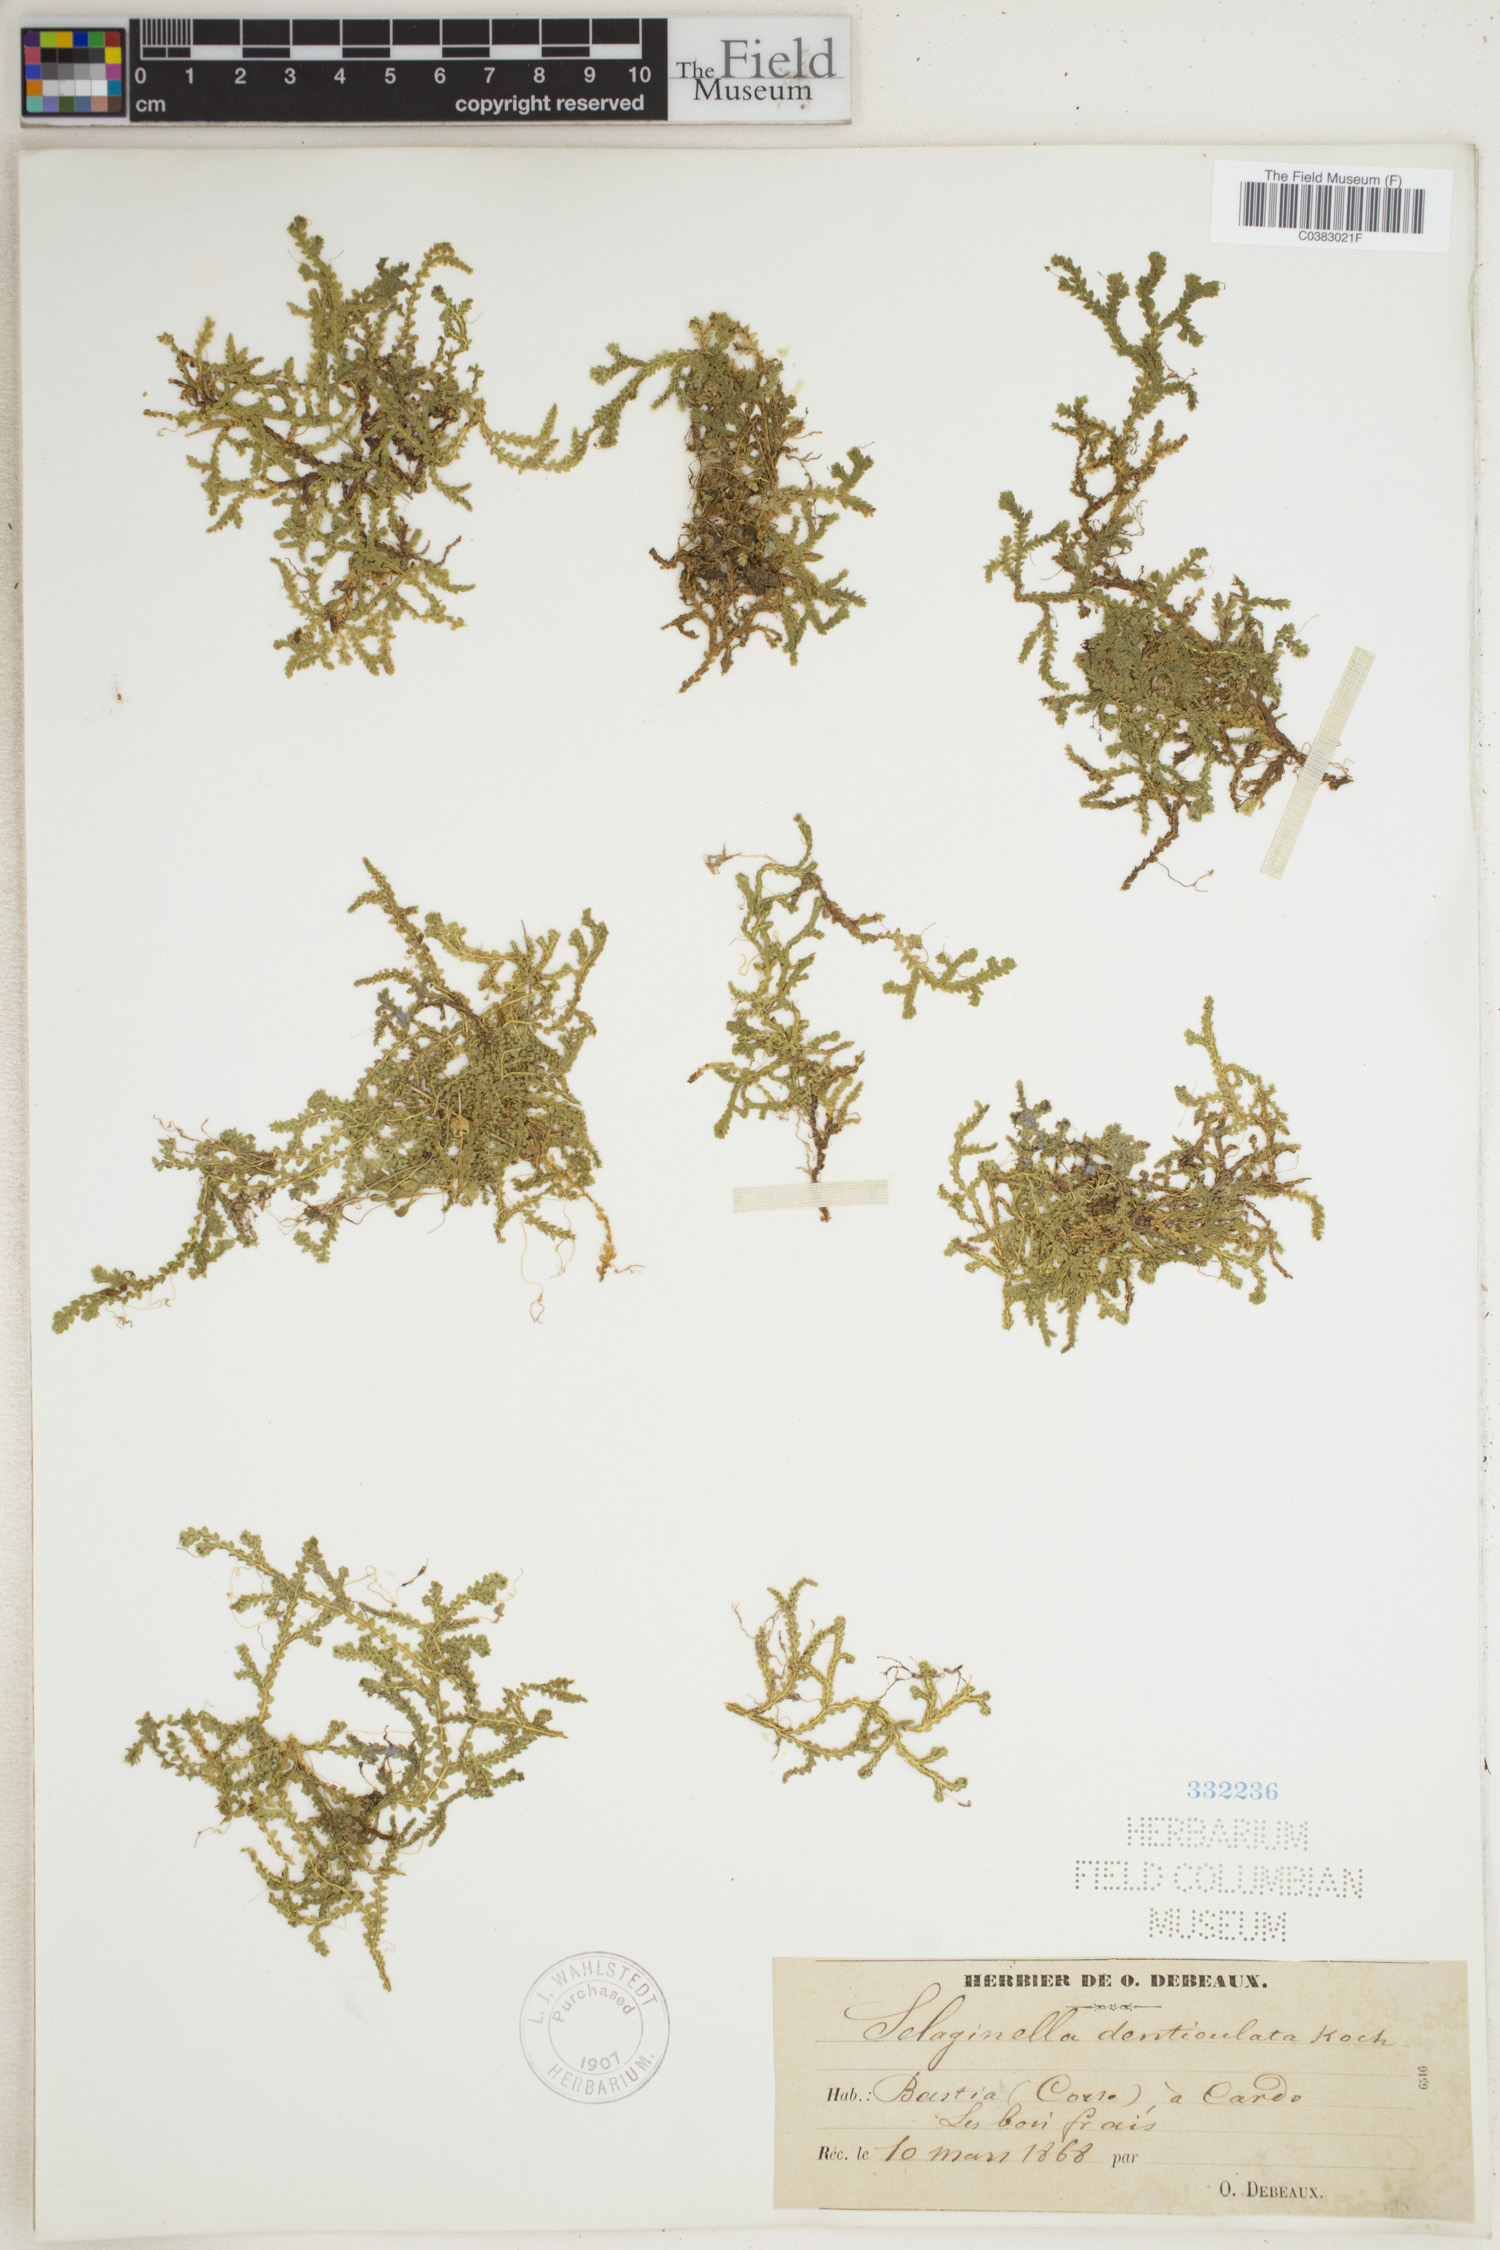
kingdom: Plantae
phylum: Tracheophyta
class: Lycopodiopsida
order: Selaginellales
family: Selaginellaceae
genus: Selaginella
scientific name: Selaginella denticulata
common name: Toothed-leaved clubmoss
